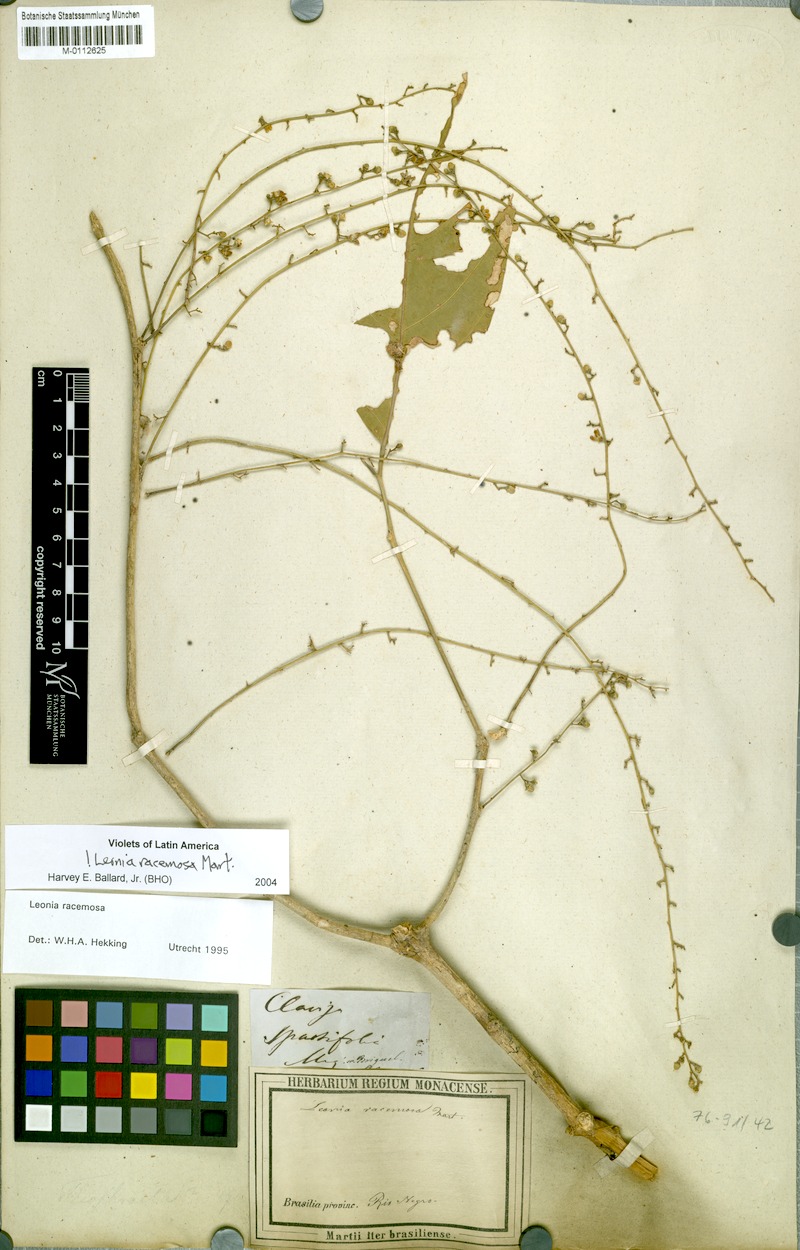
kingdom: Plantae
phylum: Tracheophyta
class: Magnoliopsida
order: Malpighiales
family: Violaceae
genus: Leonia
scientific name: Leonia racemosa
